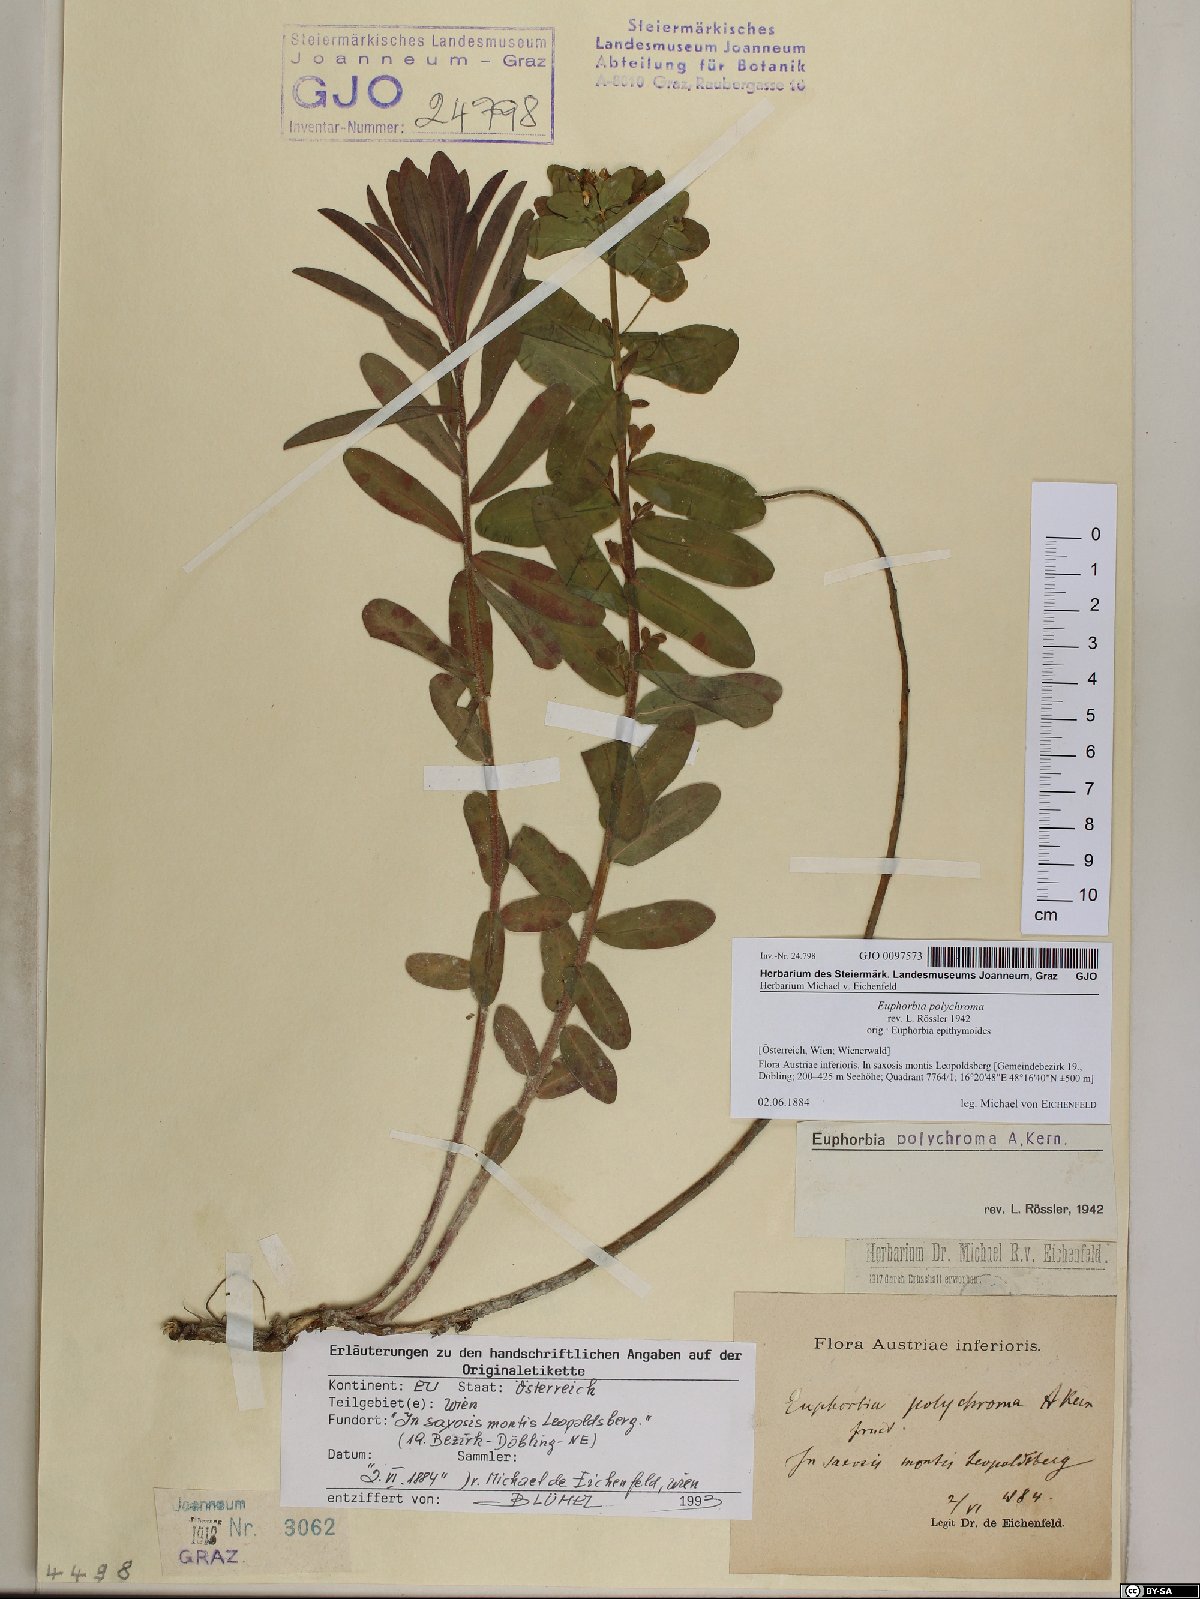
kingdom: Plantae
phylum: Tracheophyta
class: Magnoliopsida
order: Malpighiales
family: Euphorbiaceae
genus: Euphorbia
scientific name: Euphorbia epithymoides
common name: Cushion spurge
